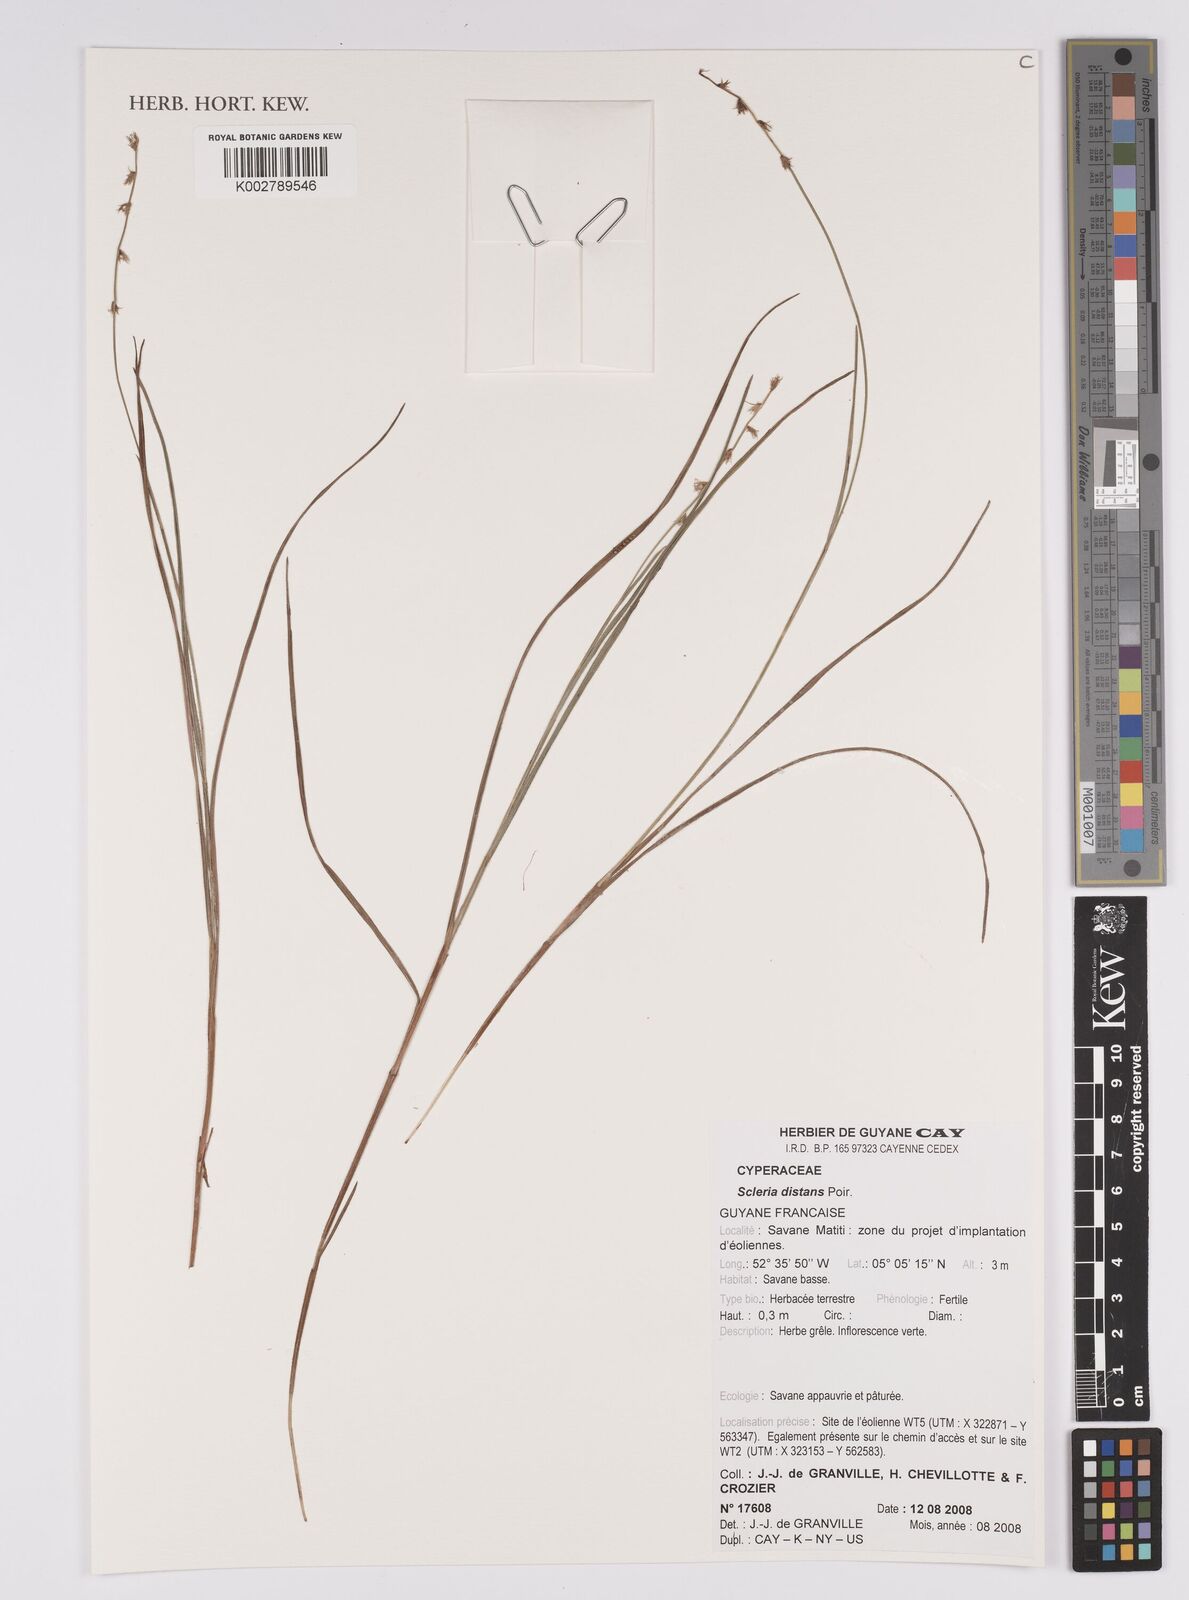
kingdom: Plantae
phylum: Tracheophyta
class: Liliopsida
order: Poales
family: Cyperaceae
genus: Scleria
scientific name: Scleria distans
